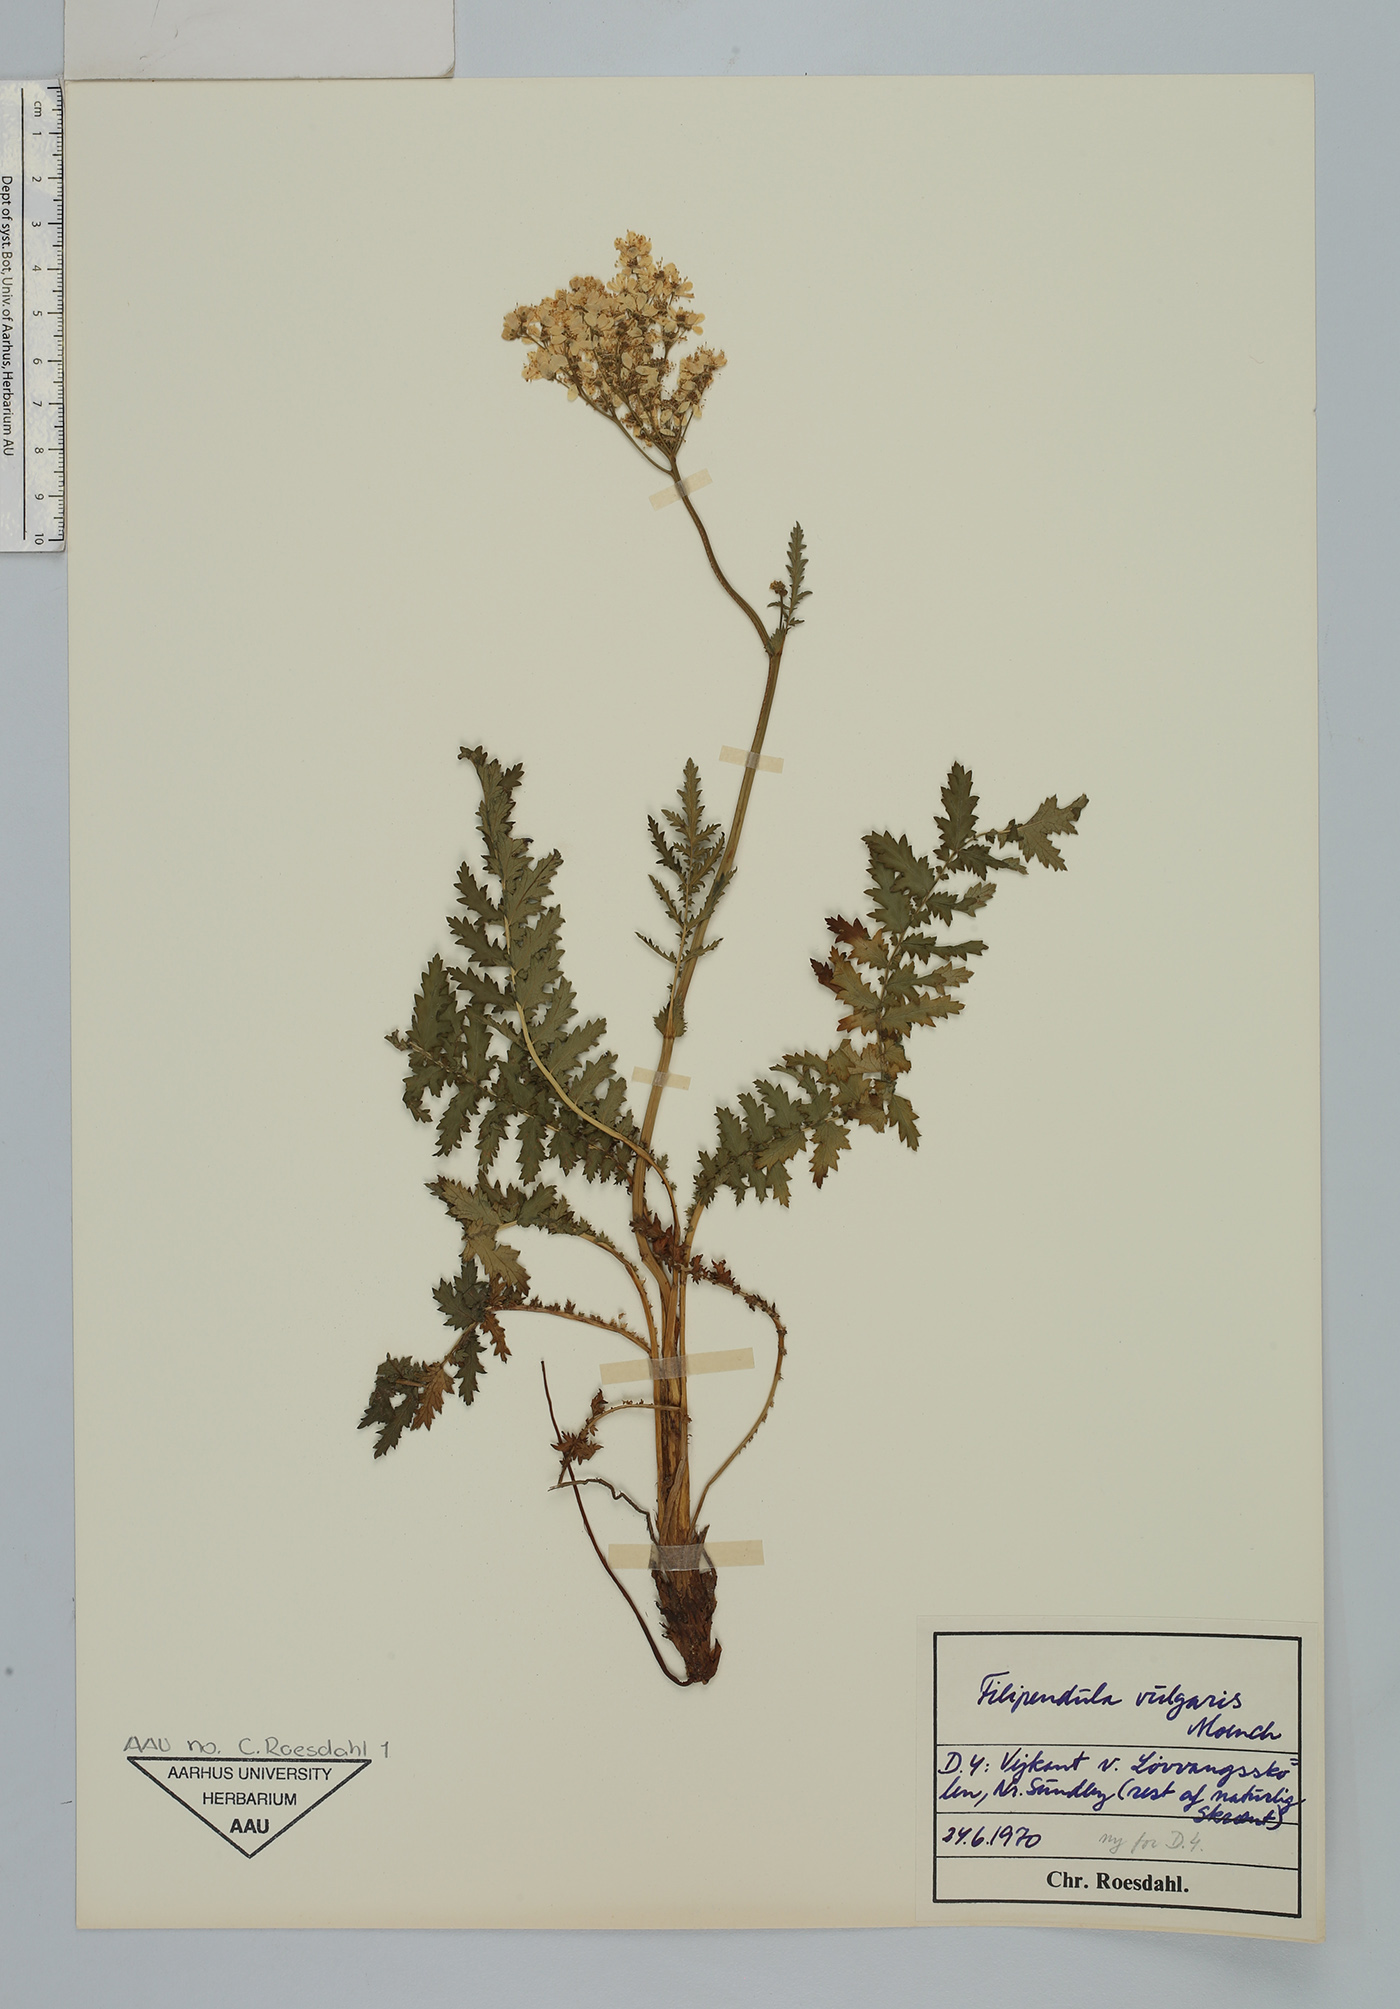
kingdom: Plantae
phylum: Tracheophyta
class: Magnoliopsida
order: Rosales
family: Rosaceae
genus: Filipendula
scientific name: Filipendula vulgaris
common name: Dropwort
